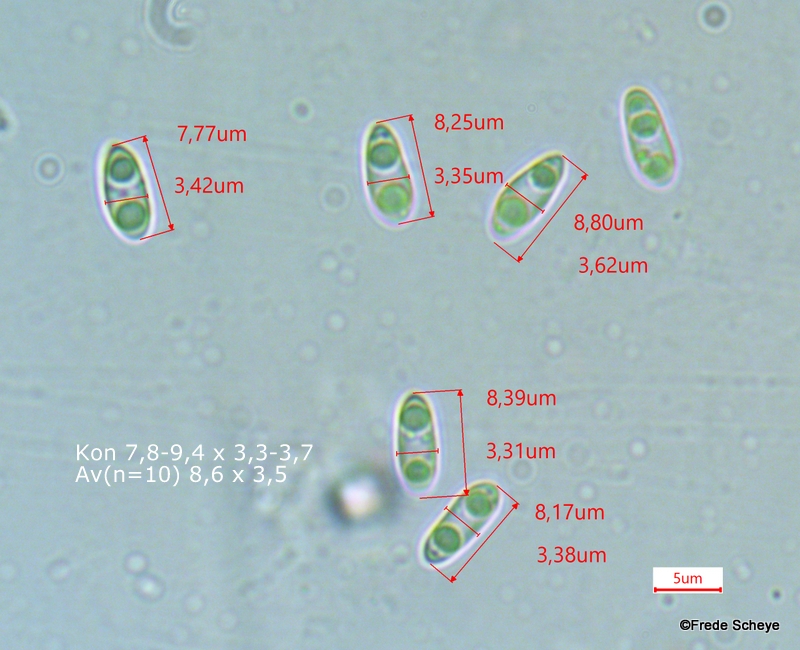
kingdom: Fungi
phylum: Ascomycota
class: Sordariomycetes
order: Diaporthales
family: Diaporthaceae
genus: Diaporthe
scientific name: Diaporthe samaricola
